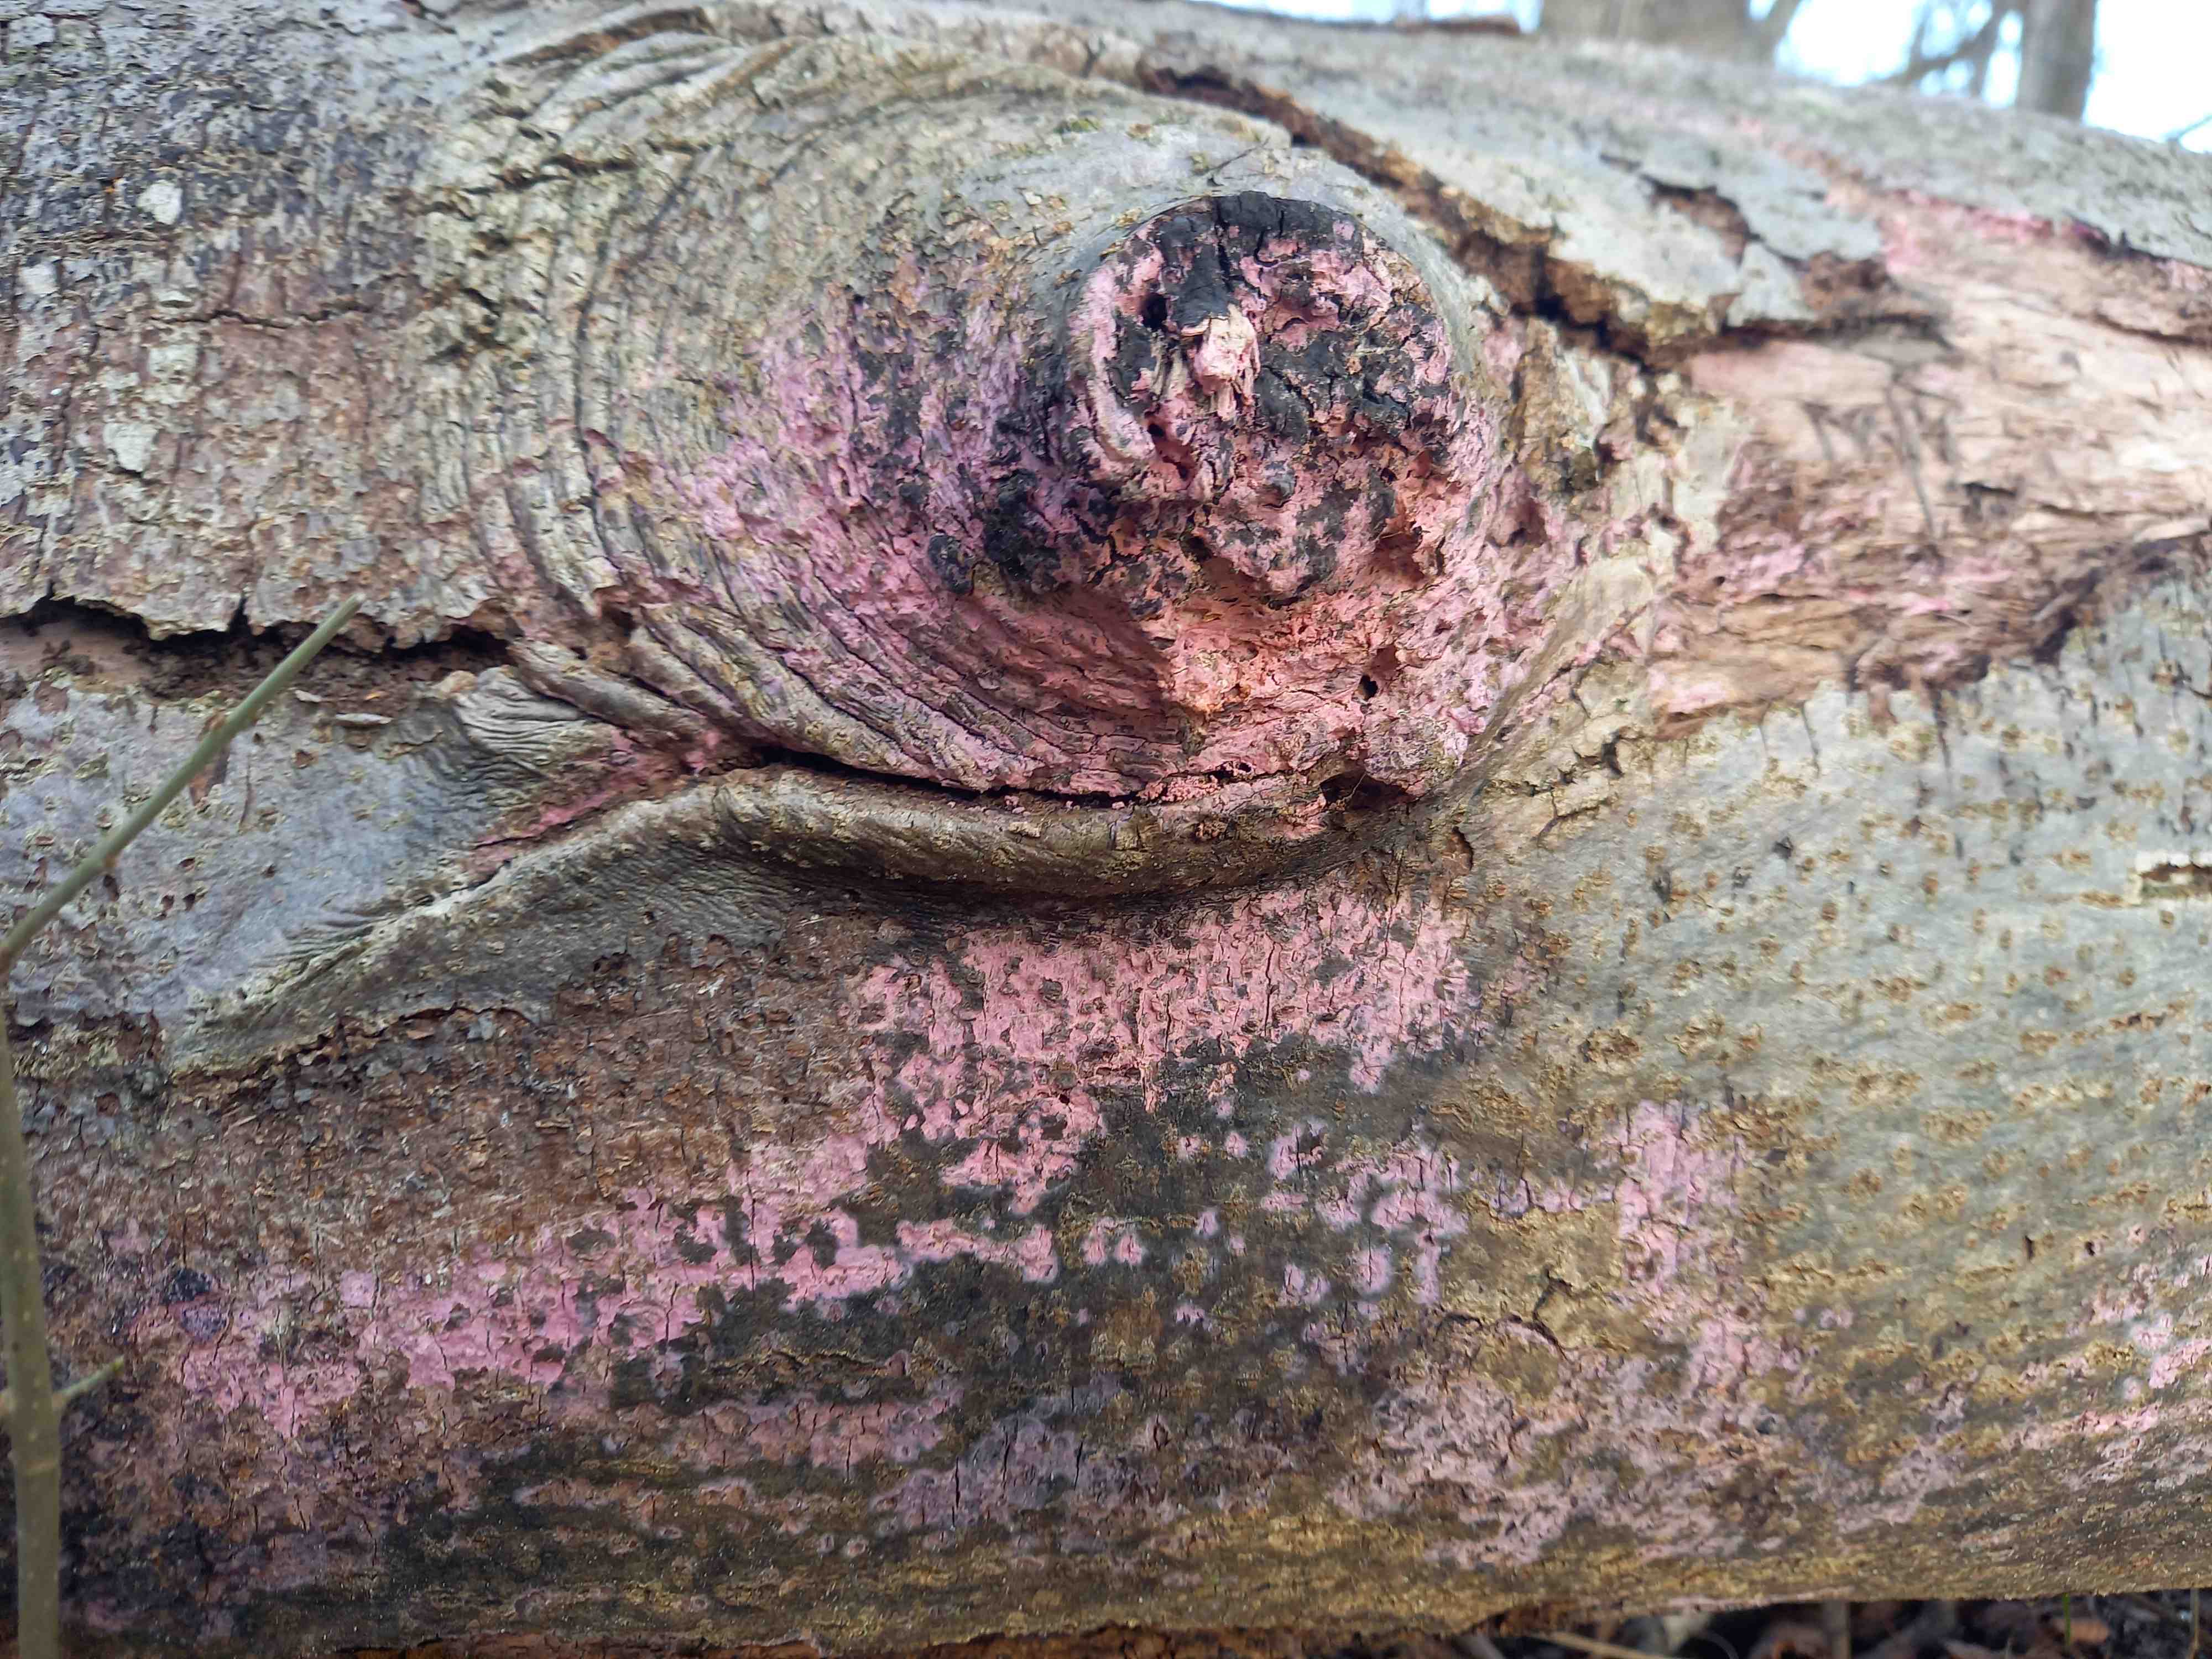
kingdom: Fungi
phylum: Basidiomycota
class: Agaricomycetes
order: Cantharellales
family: Tulasnellaceae
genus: Tulasnella
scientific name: Tulasnella violea
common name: violet ballonhinde
